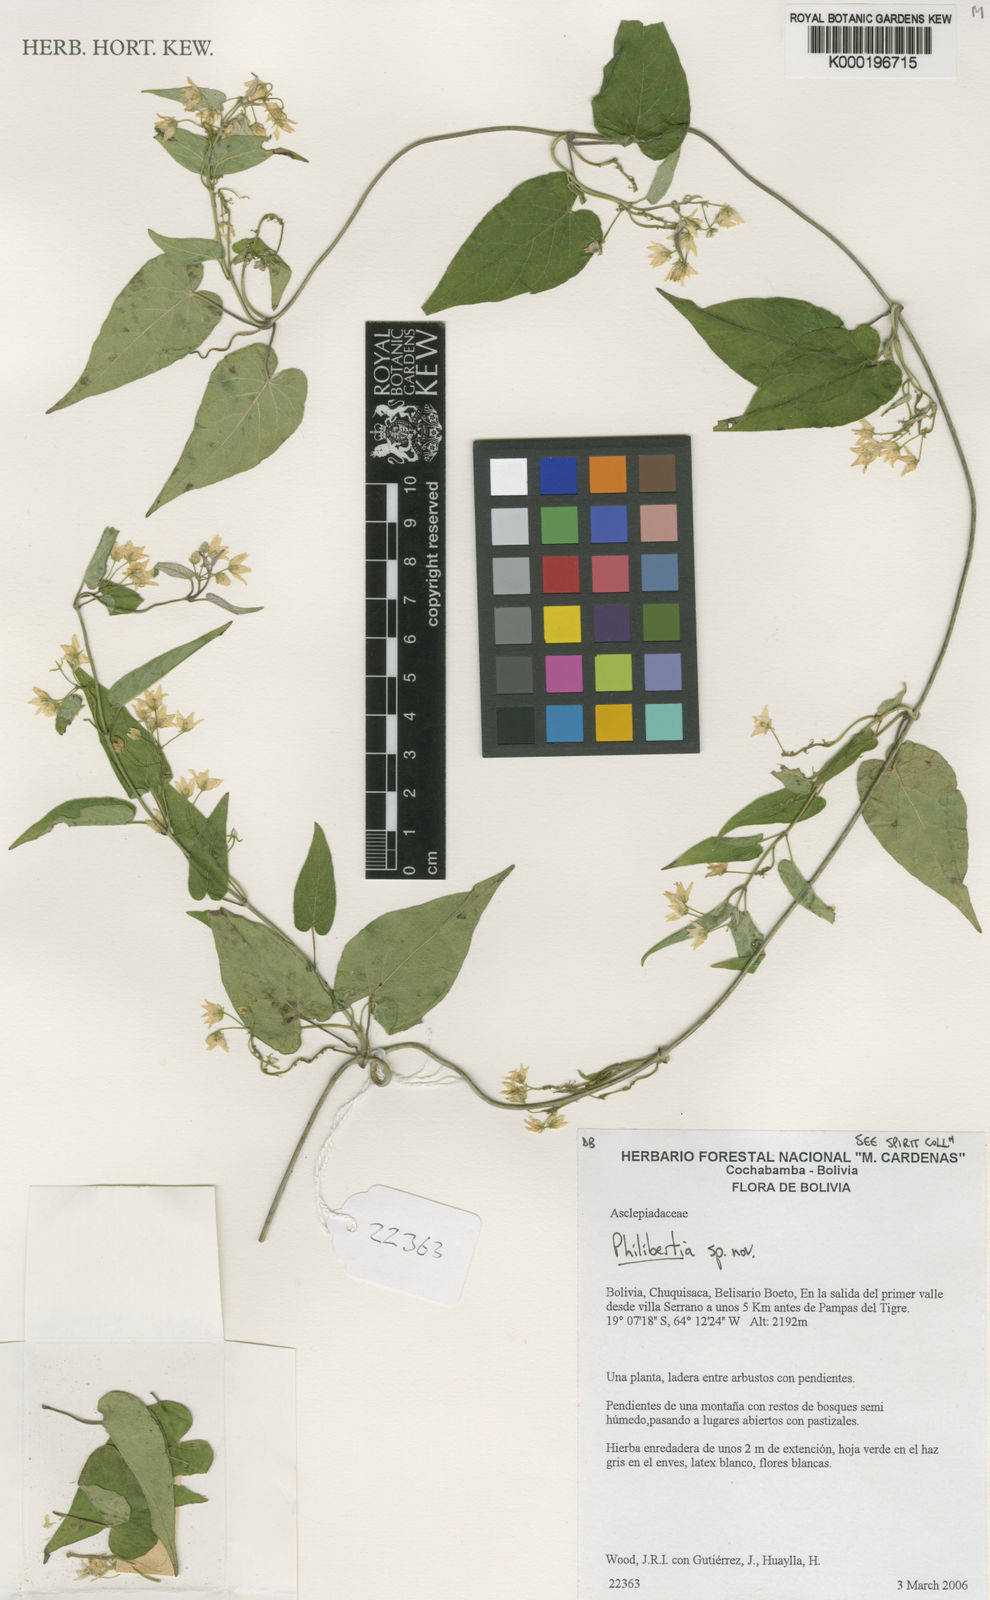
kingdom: Plantae
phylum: Tracheophyta
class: Magnoliopsida
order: Gentianales
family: Apocynaceae
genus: Philibertia
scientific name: Philibertia alba
